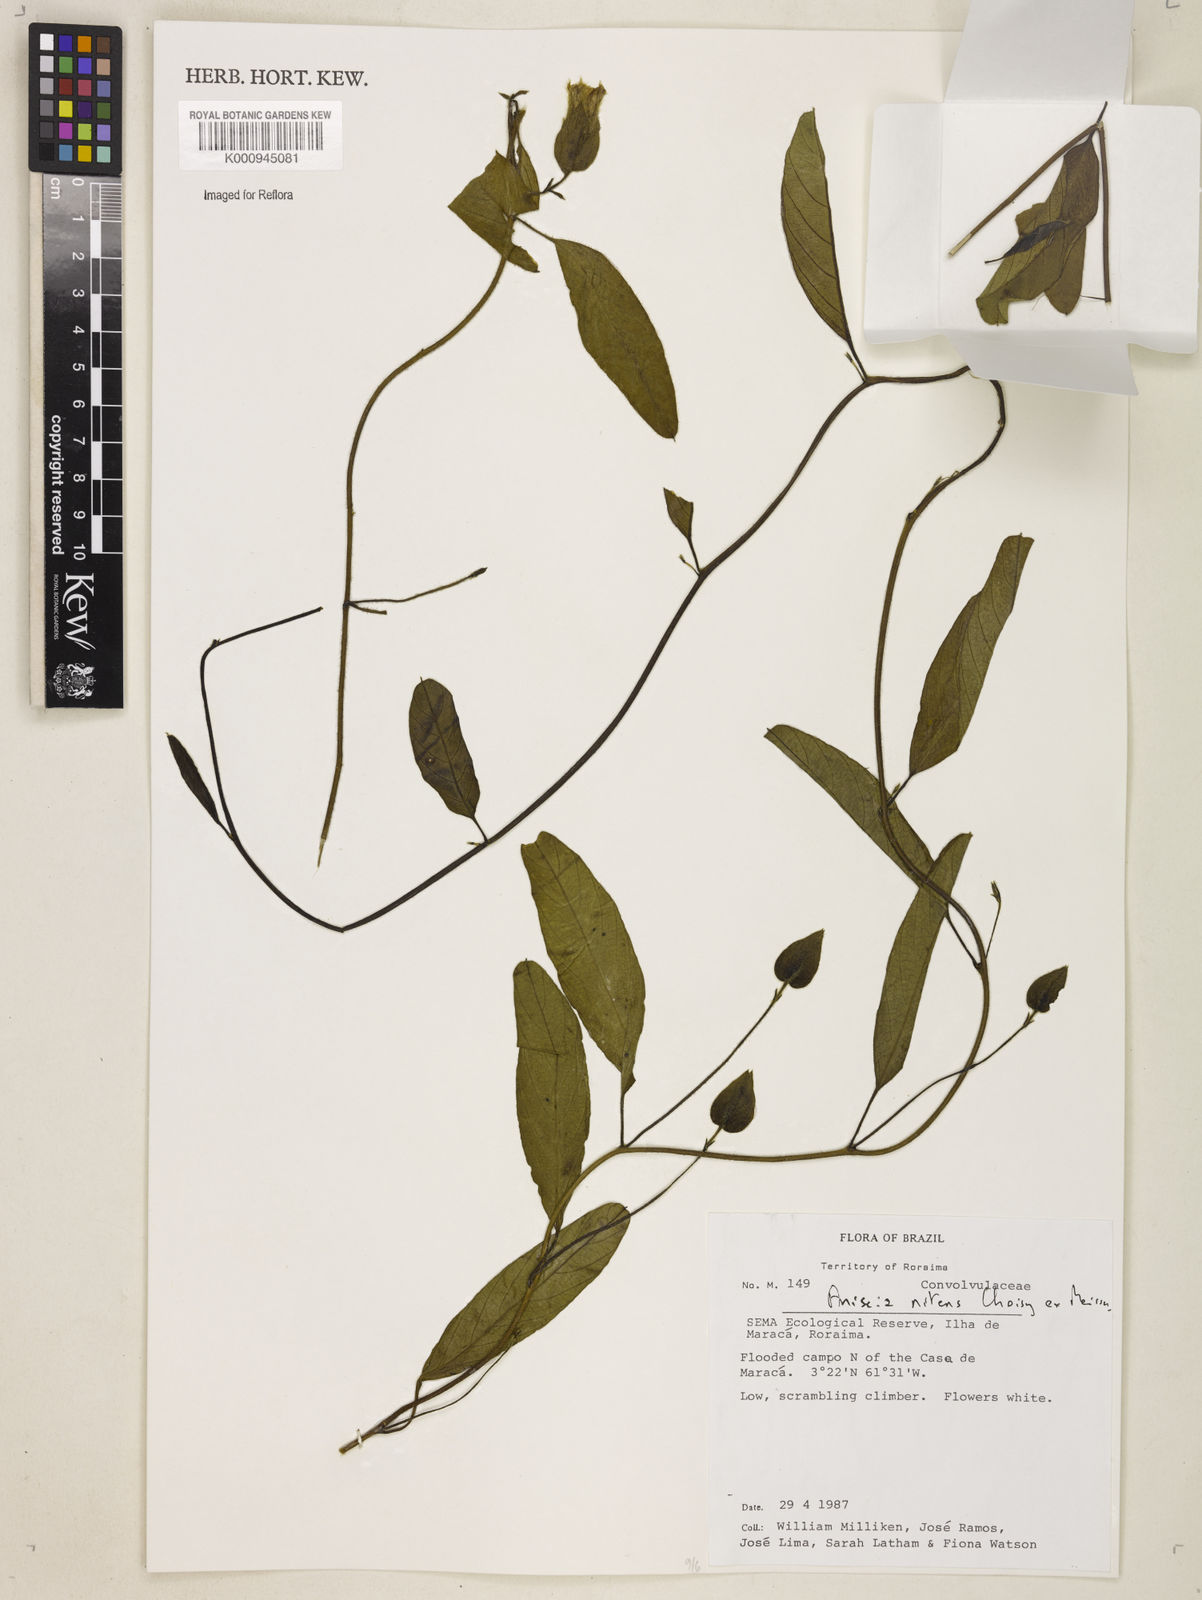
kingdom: Plantae
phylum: Tracheophyta
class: Magnoliopsida
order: Solanales
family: Convolvulaceae
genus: Aniseia
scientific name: Aniseia martinicensis
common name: Kulayadambu
